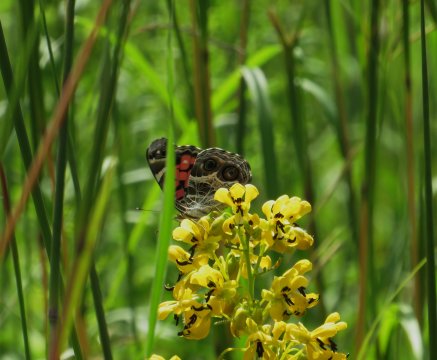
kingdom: Animalia
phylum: Arthropoda
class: Insecta
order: Lepidoptera
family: Nymphalidae
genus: Vanessa
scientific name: Vanessa virginiensis
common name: American Lady
